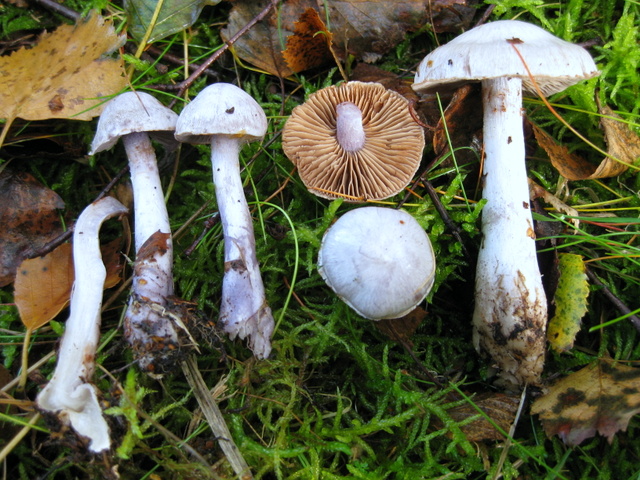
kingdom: Fungi
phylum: Basidiomycota
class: Agaricomycetes
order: Agaricales
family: Cortinariaceae
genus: Cortinarius
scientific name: Cortinarius alboviolaceus
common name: lysviolet slørhat
